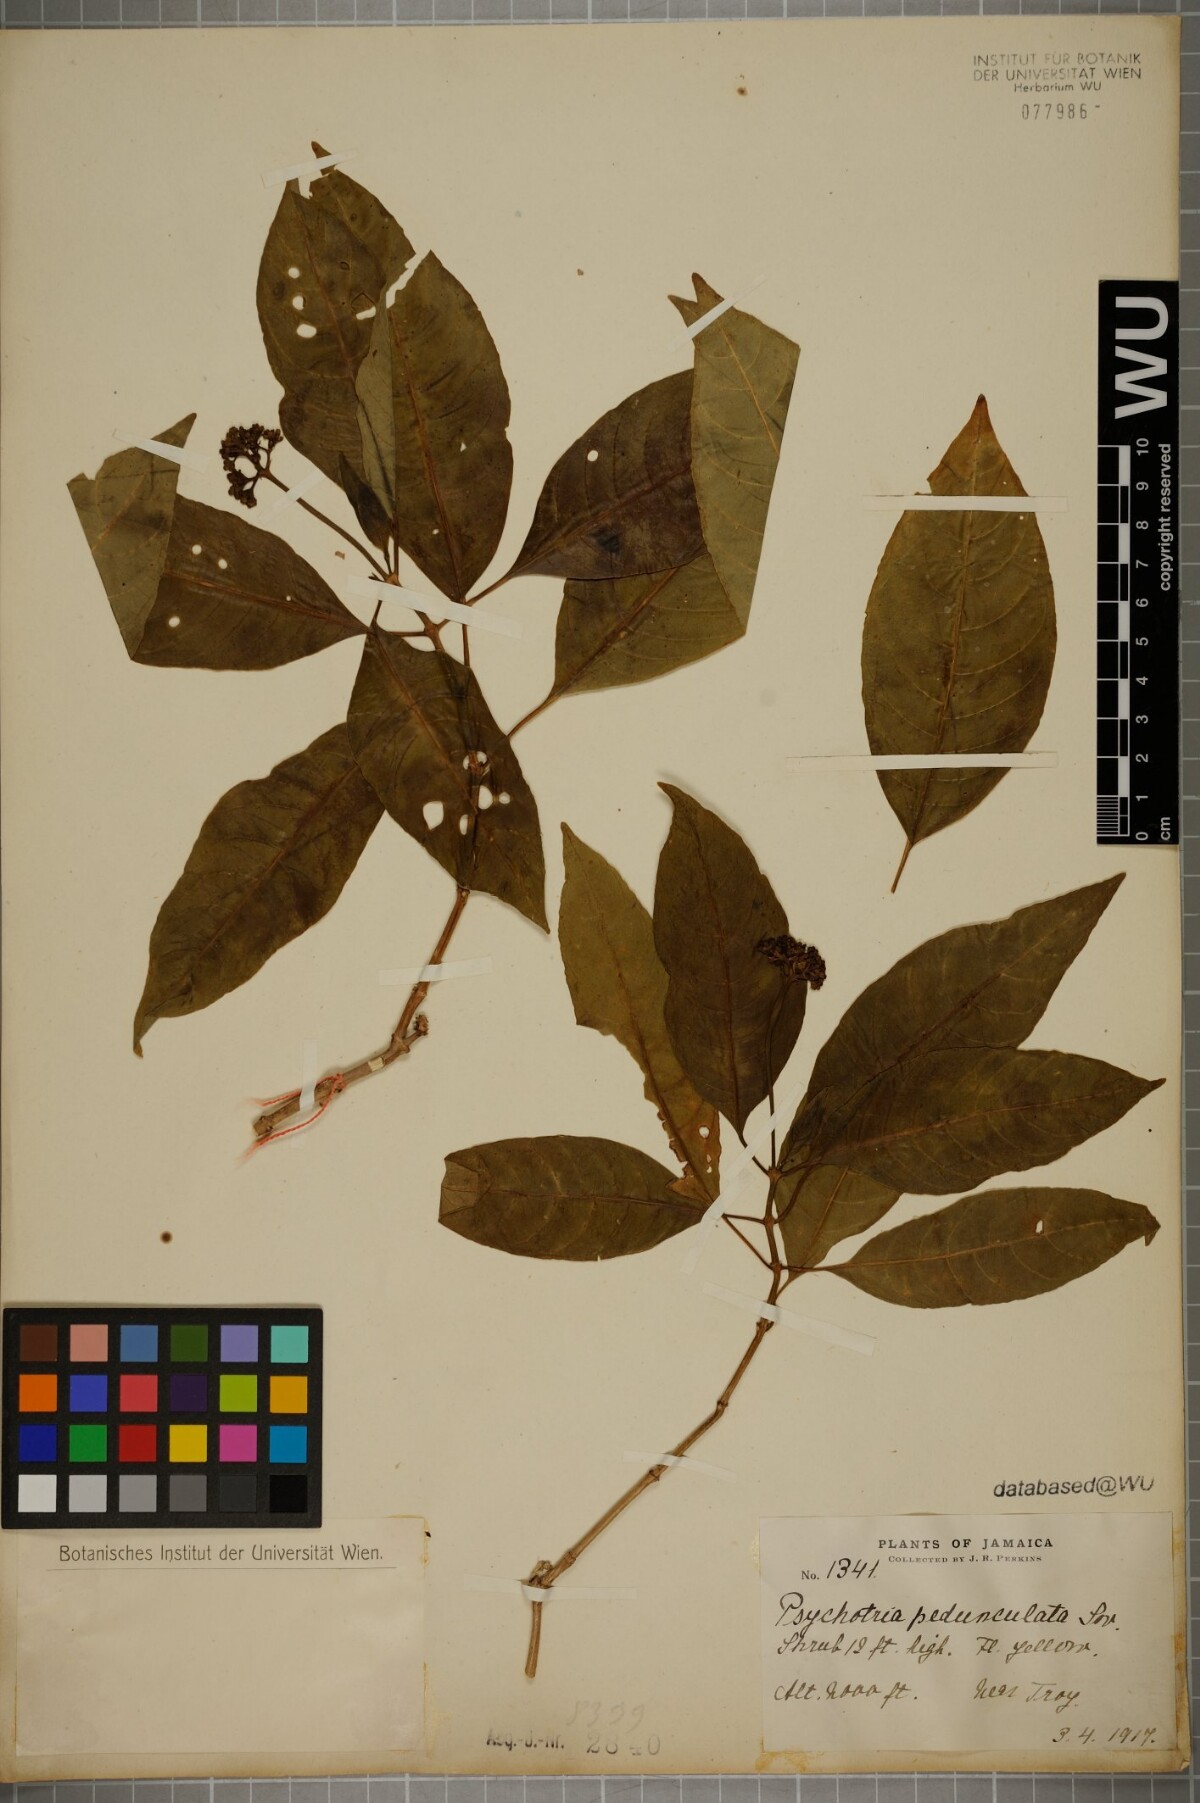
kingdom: Plantae
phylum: Tracheophyta
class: Magnoliopsida
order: Gentianales
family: Rubiaceae
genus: Palicourea
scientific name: Palicourea pedunculata
